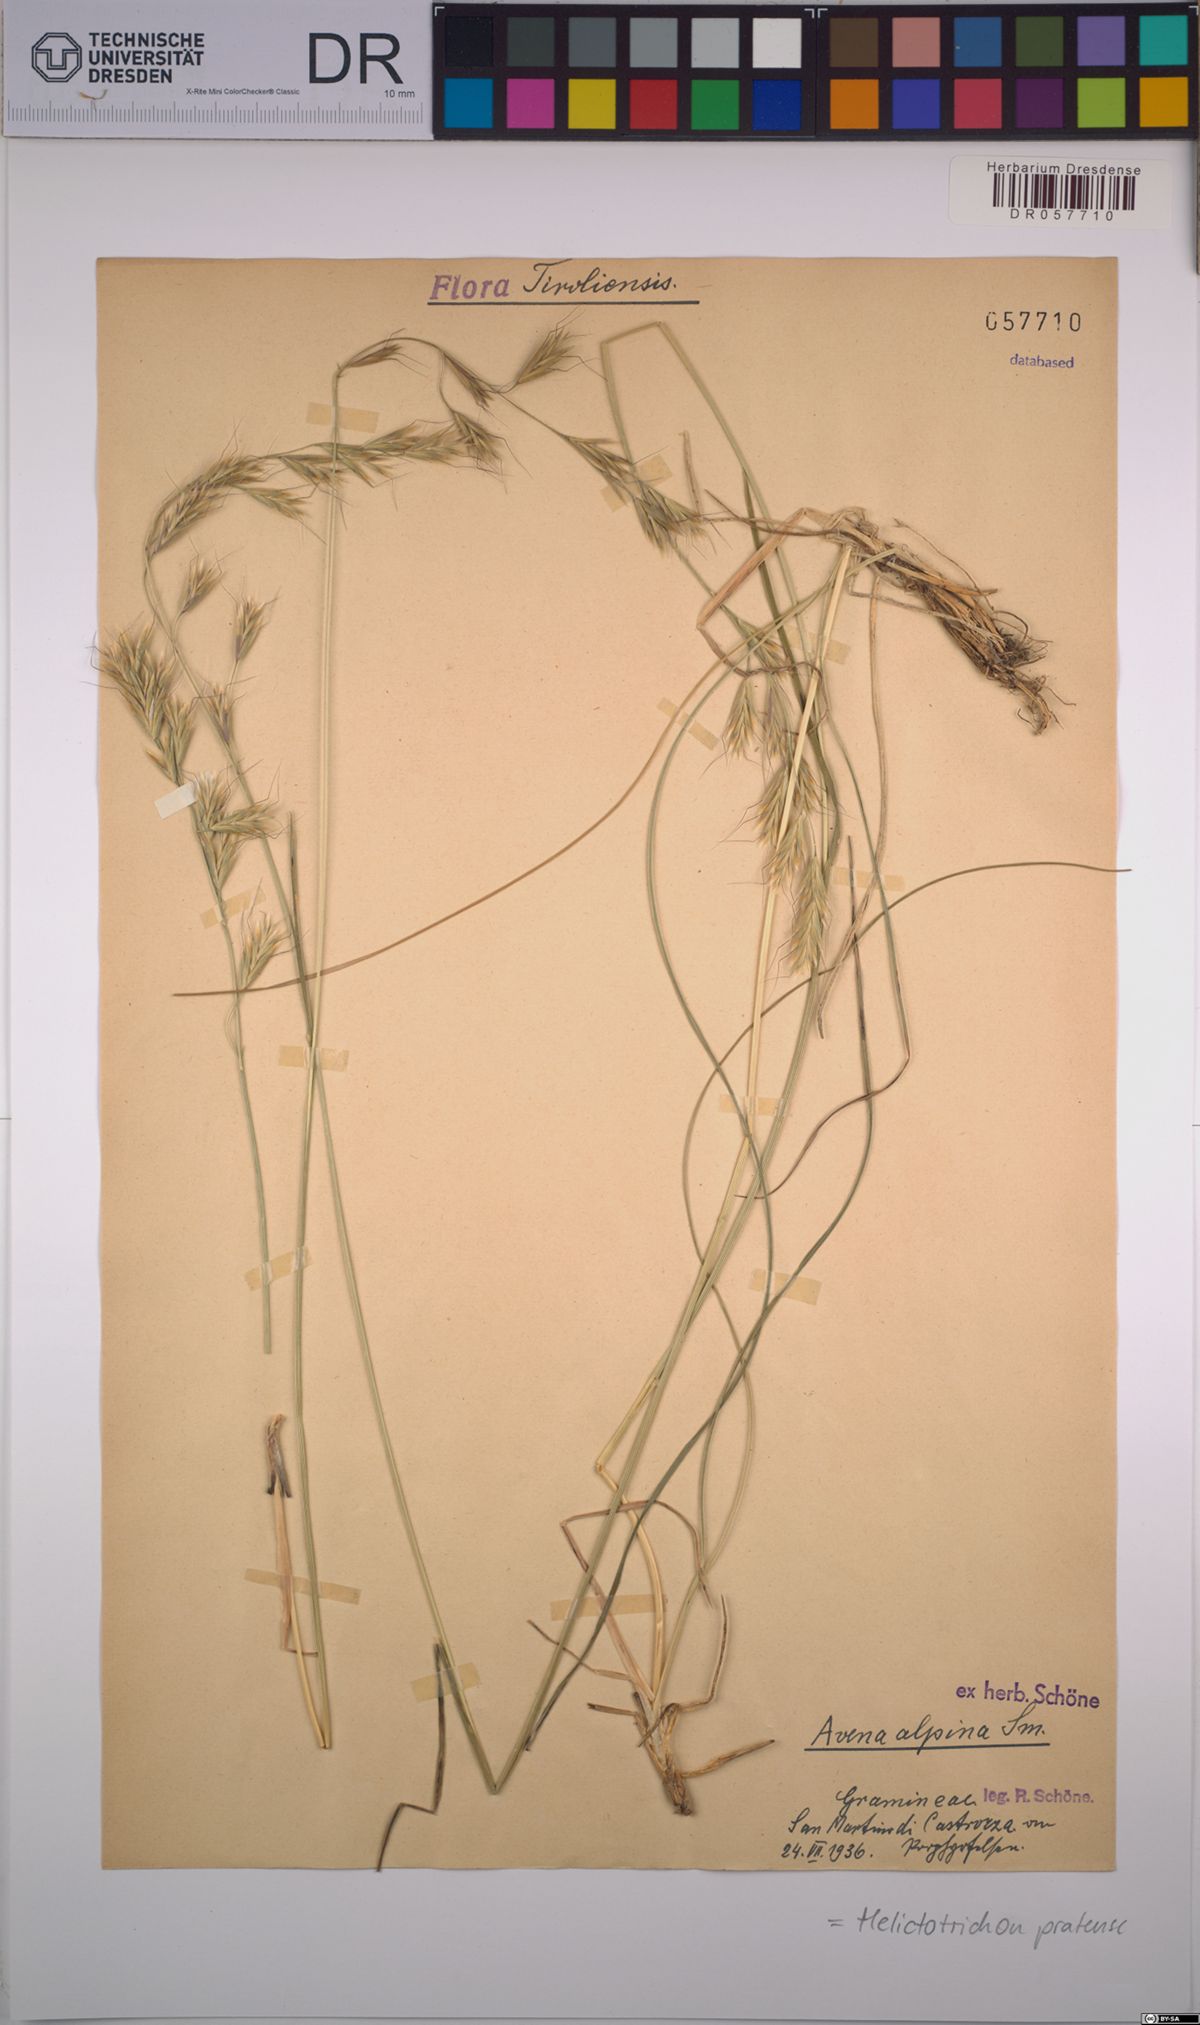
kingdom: Plantae
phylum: Tracheophyta
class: Liliopsida
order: Poales
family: Poaceae
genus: Helictochloa
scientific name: Helictochloa pratensis
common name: Meadow oat grass
